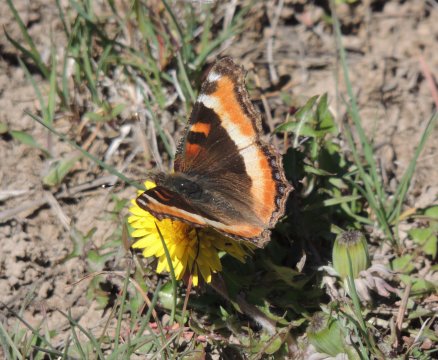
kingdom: Animalia
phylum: Arthropoda
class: Insecta
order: Lepidoptera
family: Nymphalidae
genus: Aglais
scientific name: Aglais milberti
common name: Milbert's Tortoiseshell
